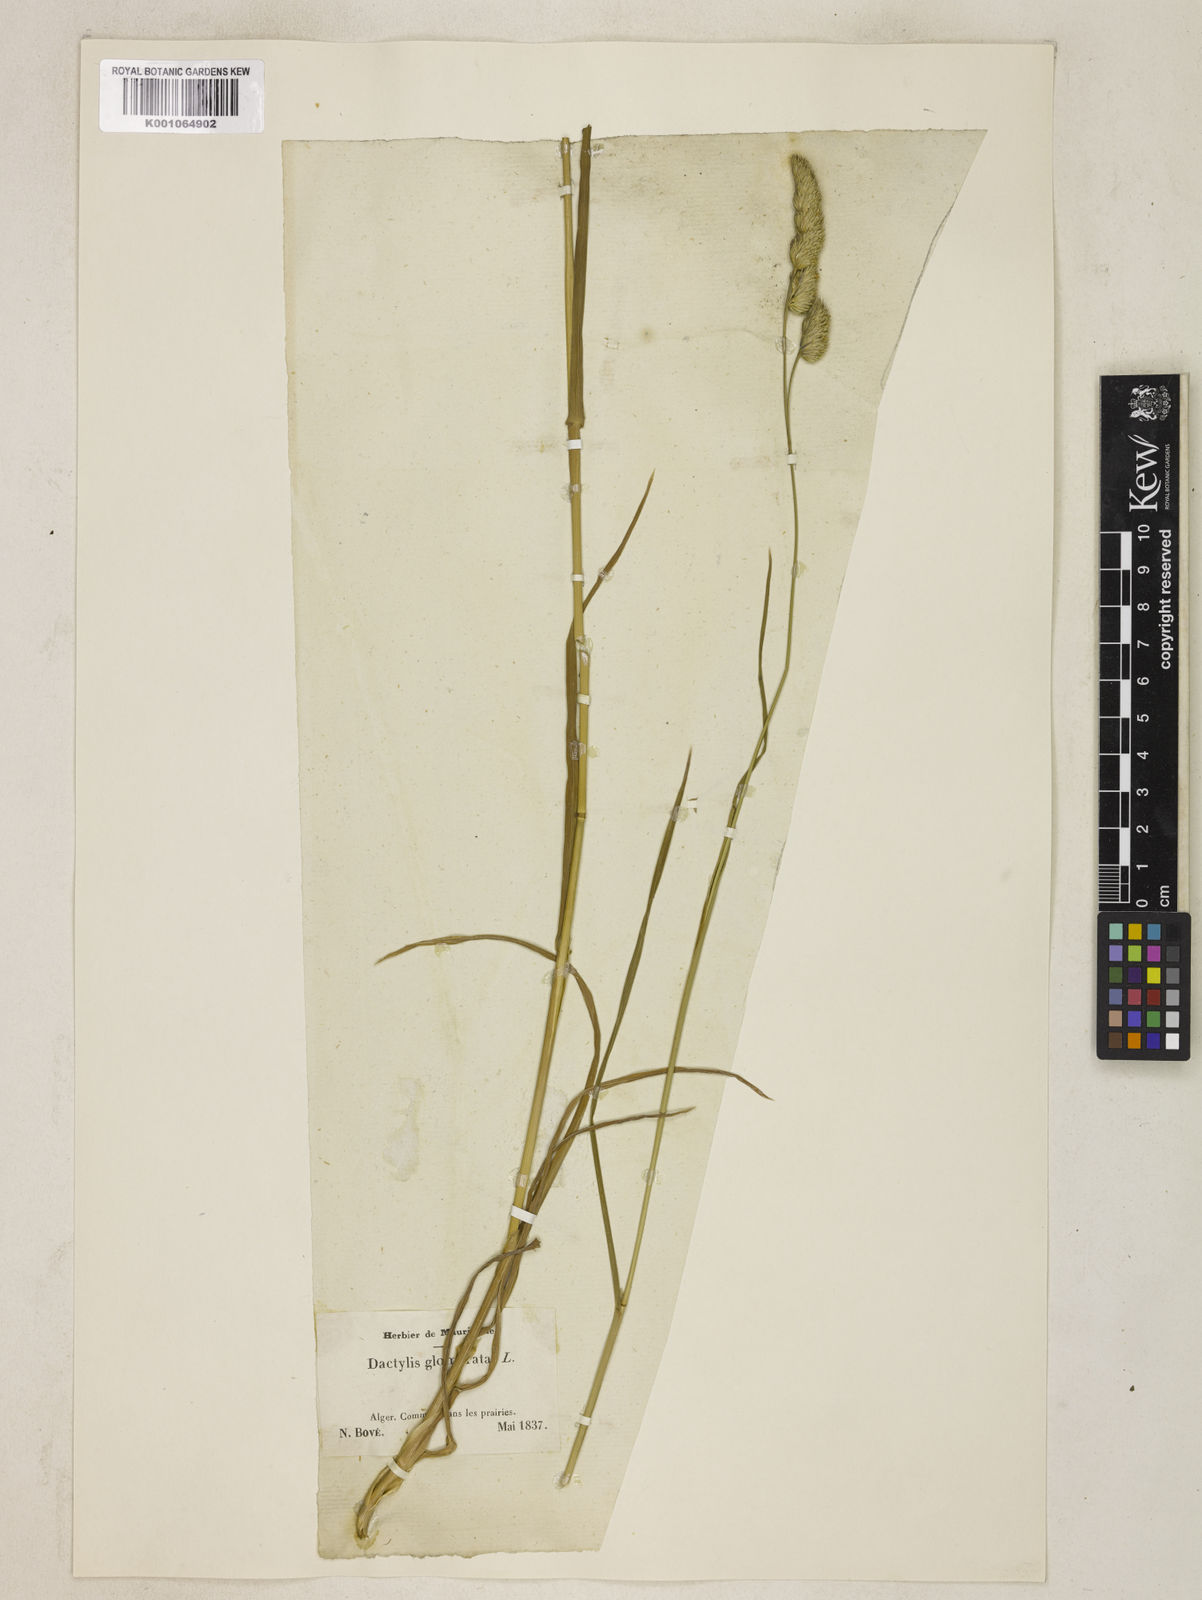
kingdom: Plantae
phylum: Tracheophyta
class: Liliopsida
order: Poales
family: Poaceae
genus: Dactylis
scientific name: Dactylis glomerata
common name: Orchardgrass
